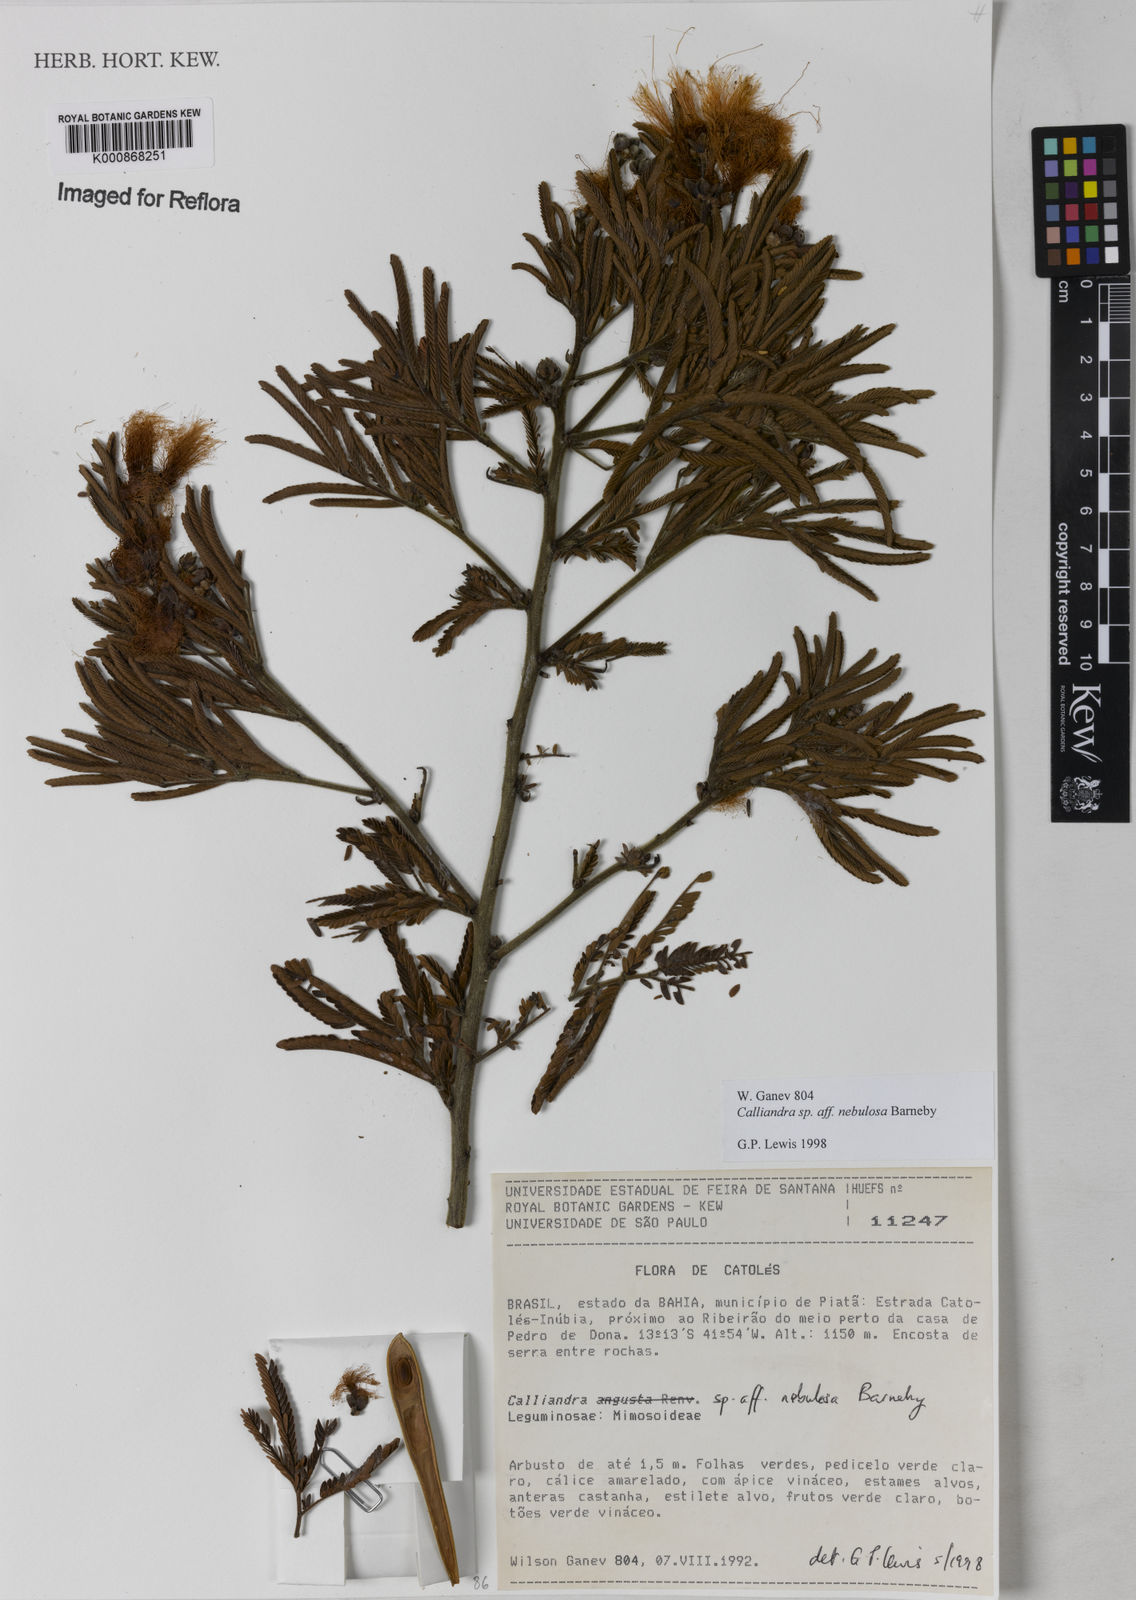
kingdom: Plantae
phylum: Tracheophyta
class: Magnoliopsida
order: Fabales
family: Fabaceae
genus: Calliandra
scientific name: Calliandra nebulosa
